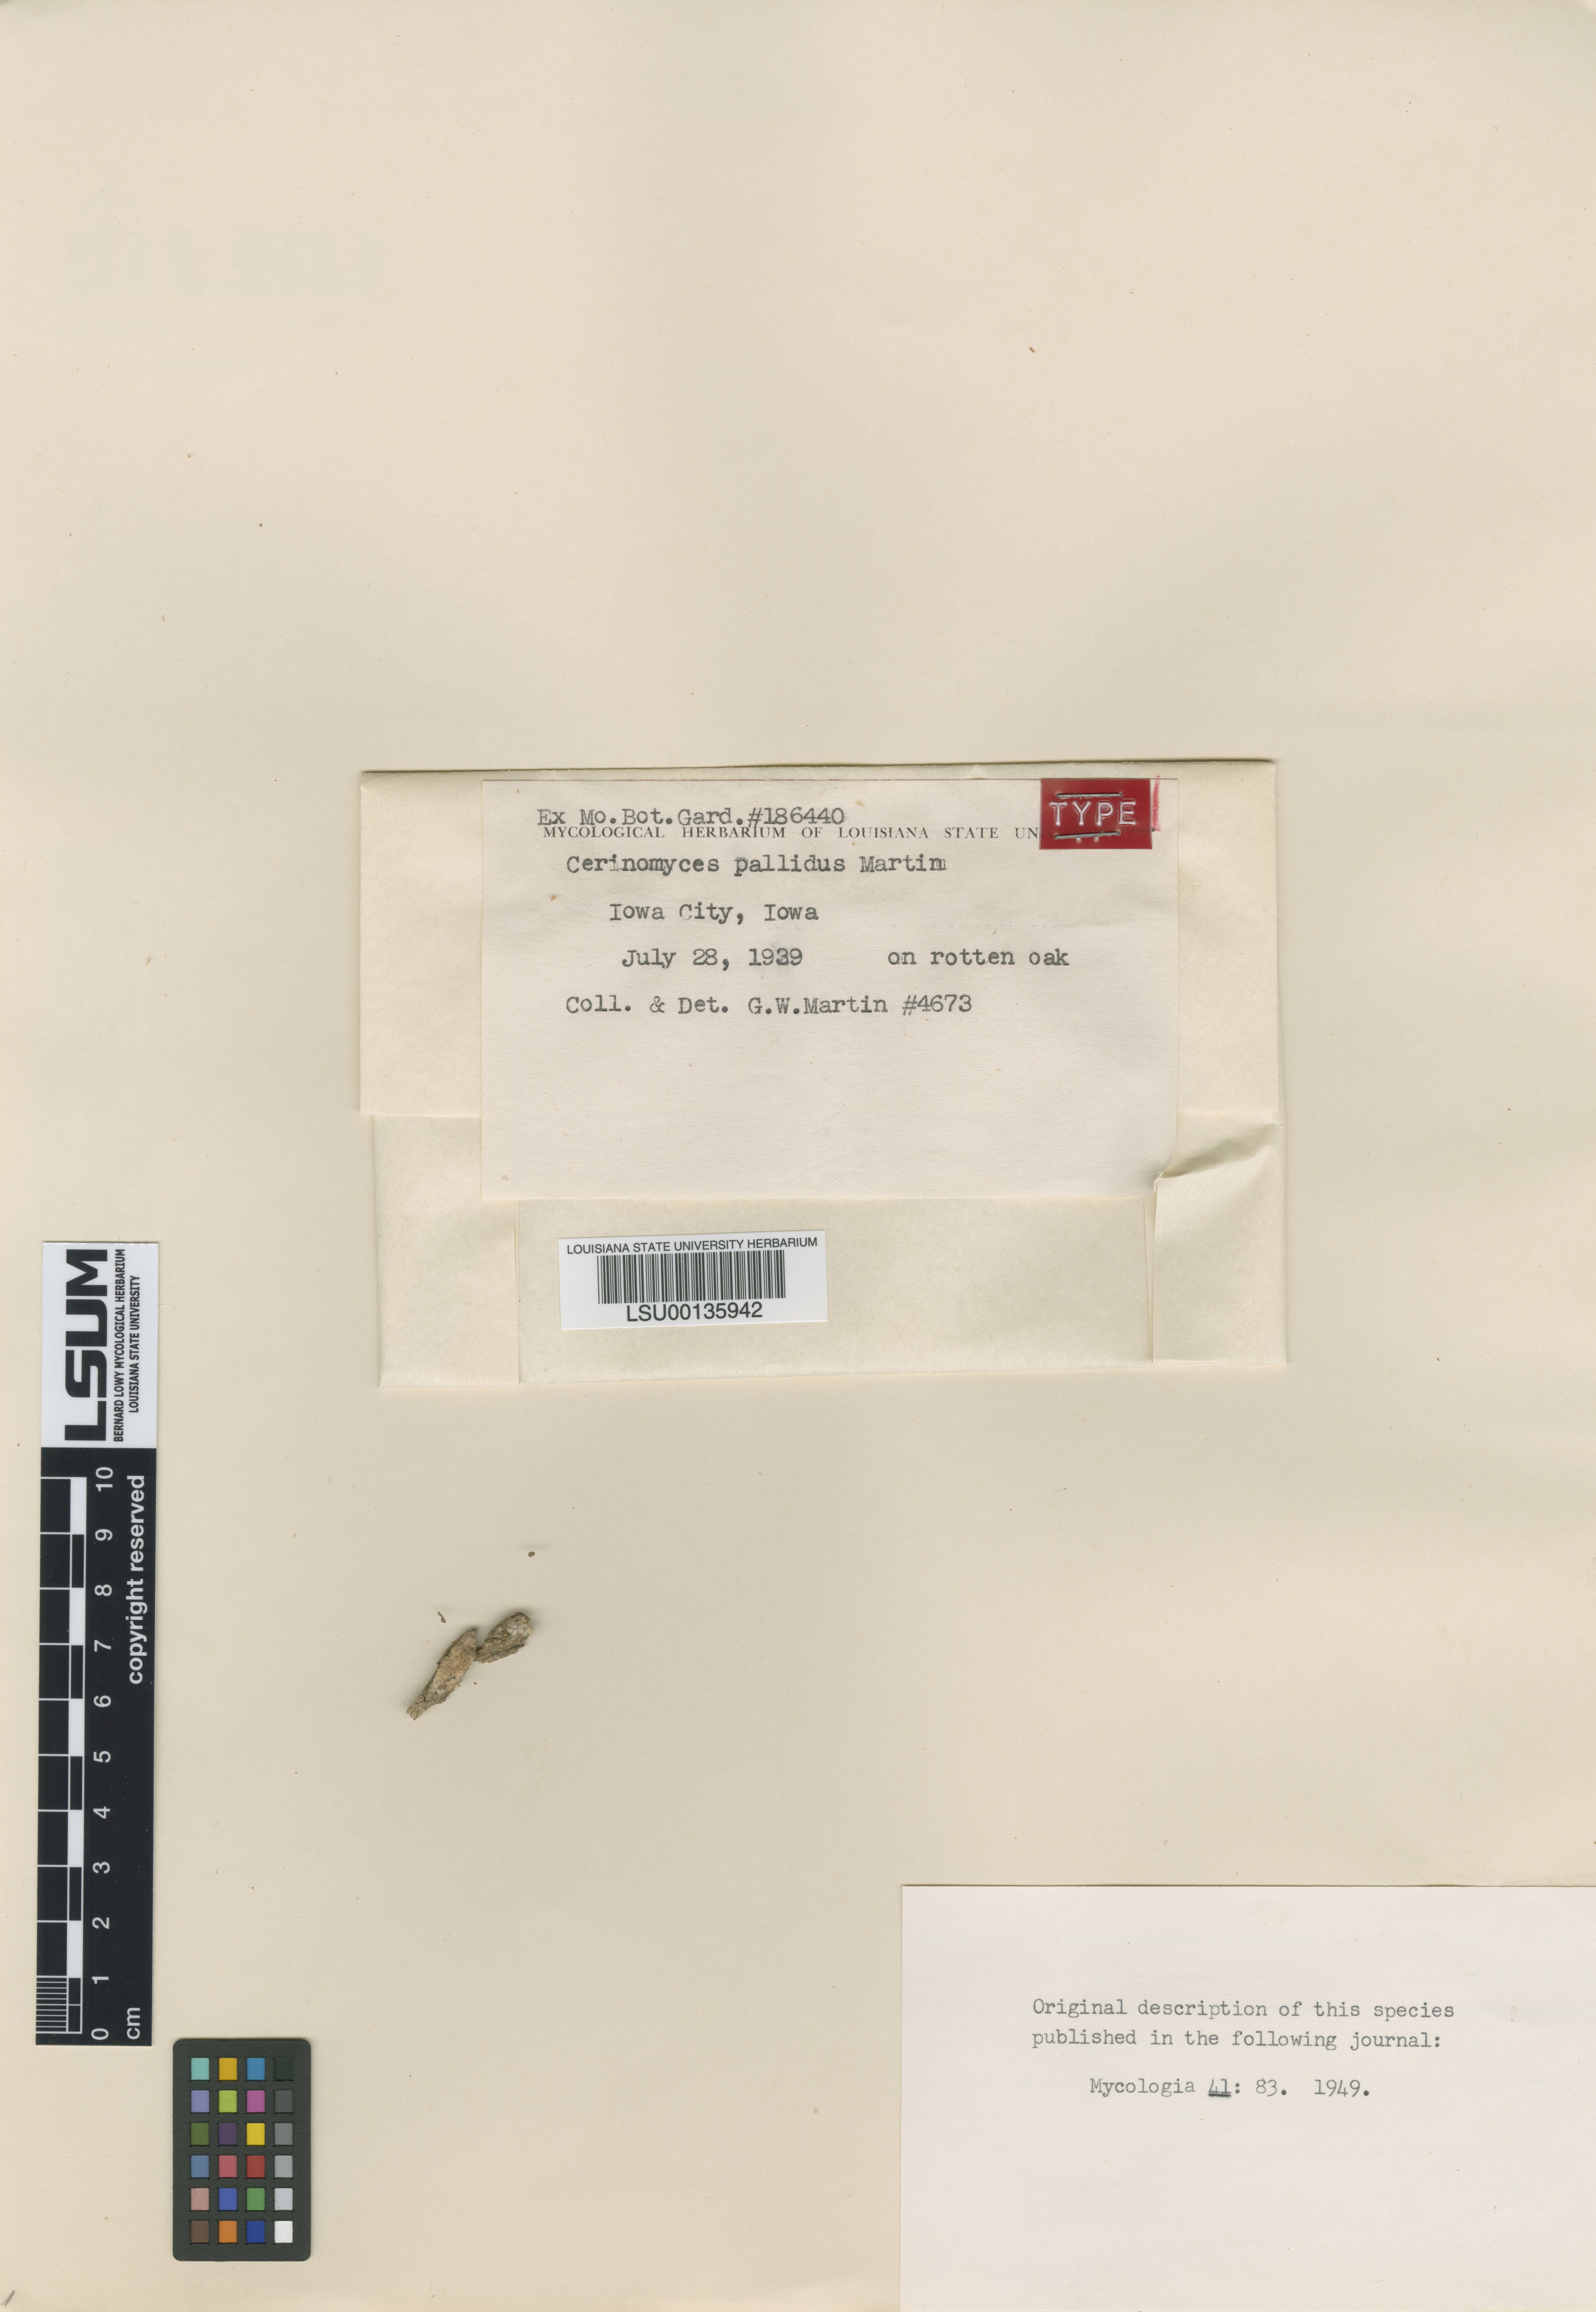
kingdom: Fungi
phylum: Basidiomycota
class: Dacrymycetes
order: Dacrymycetales
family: Cerinomycetaceae
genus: Cerinomyces
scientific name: Cerinomyces pallidus
